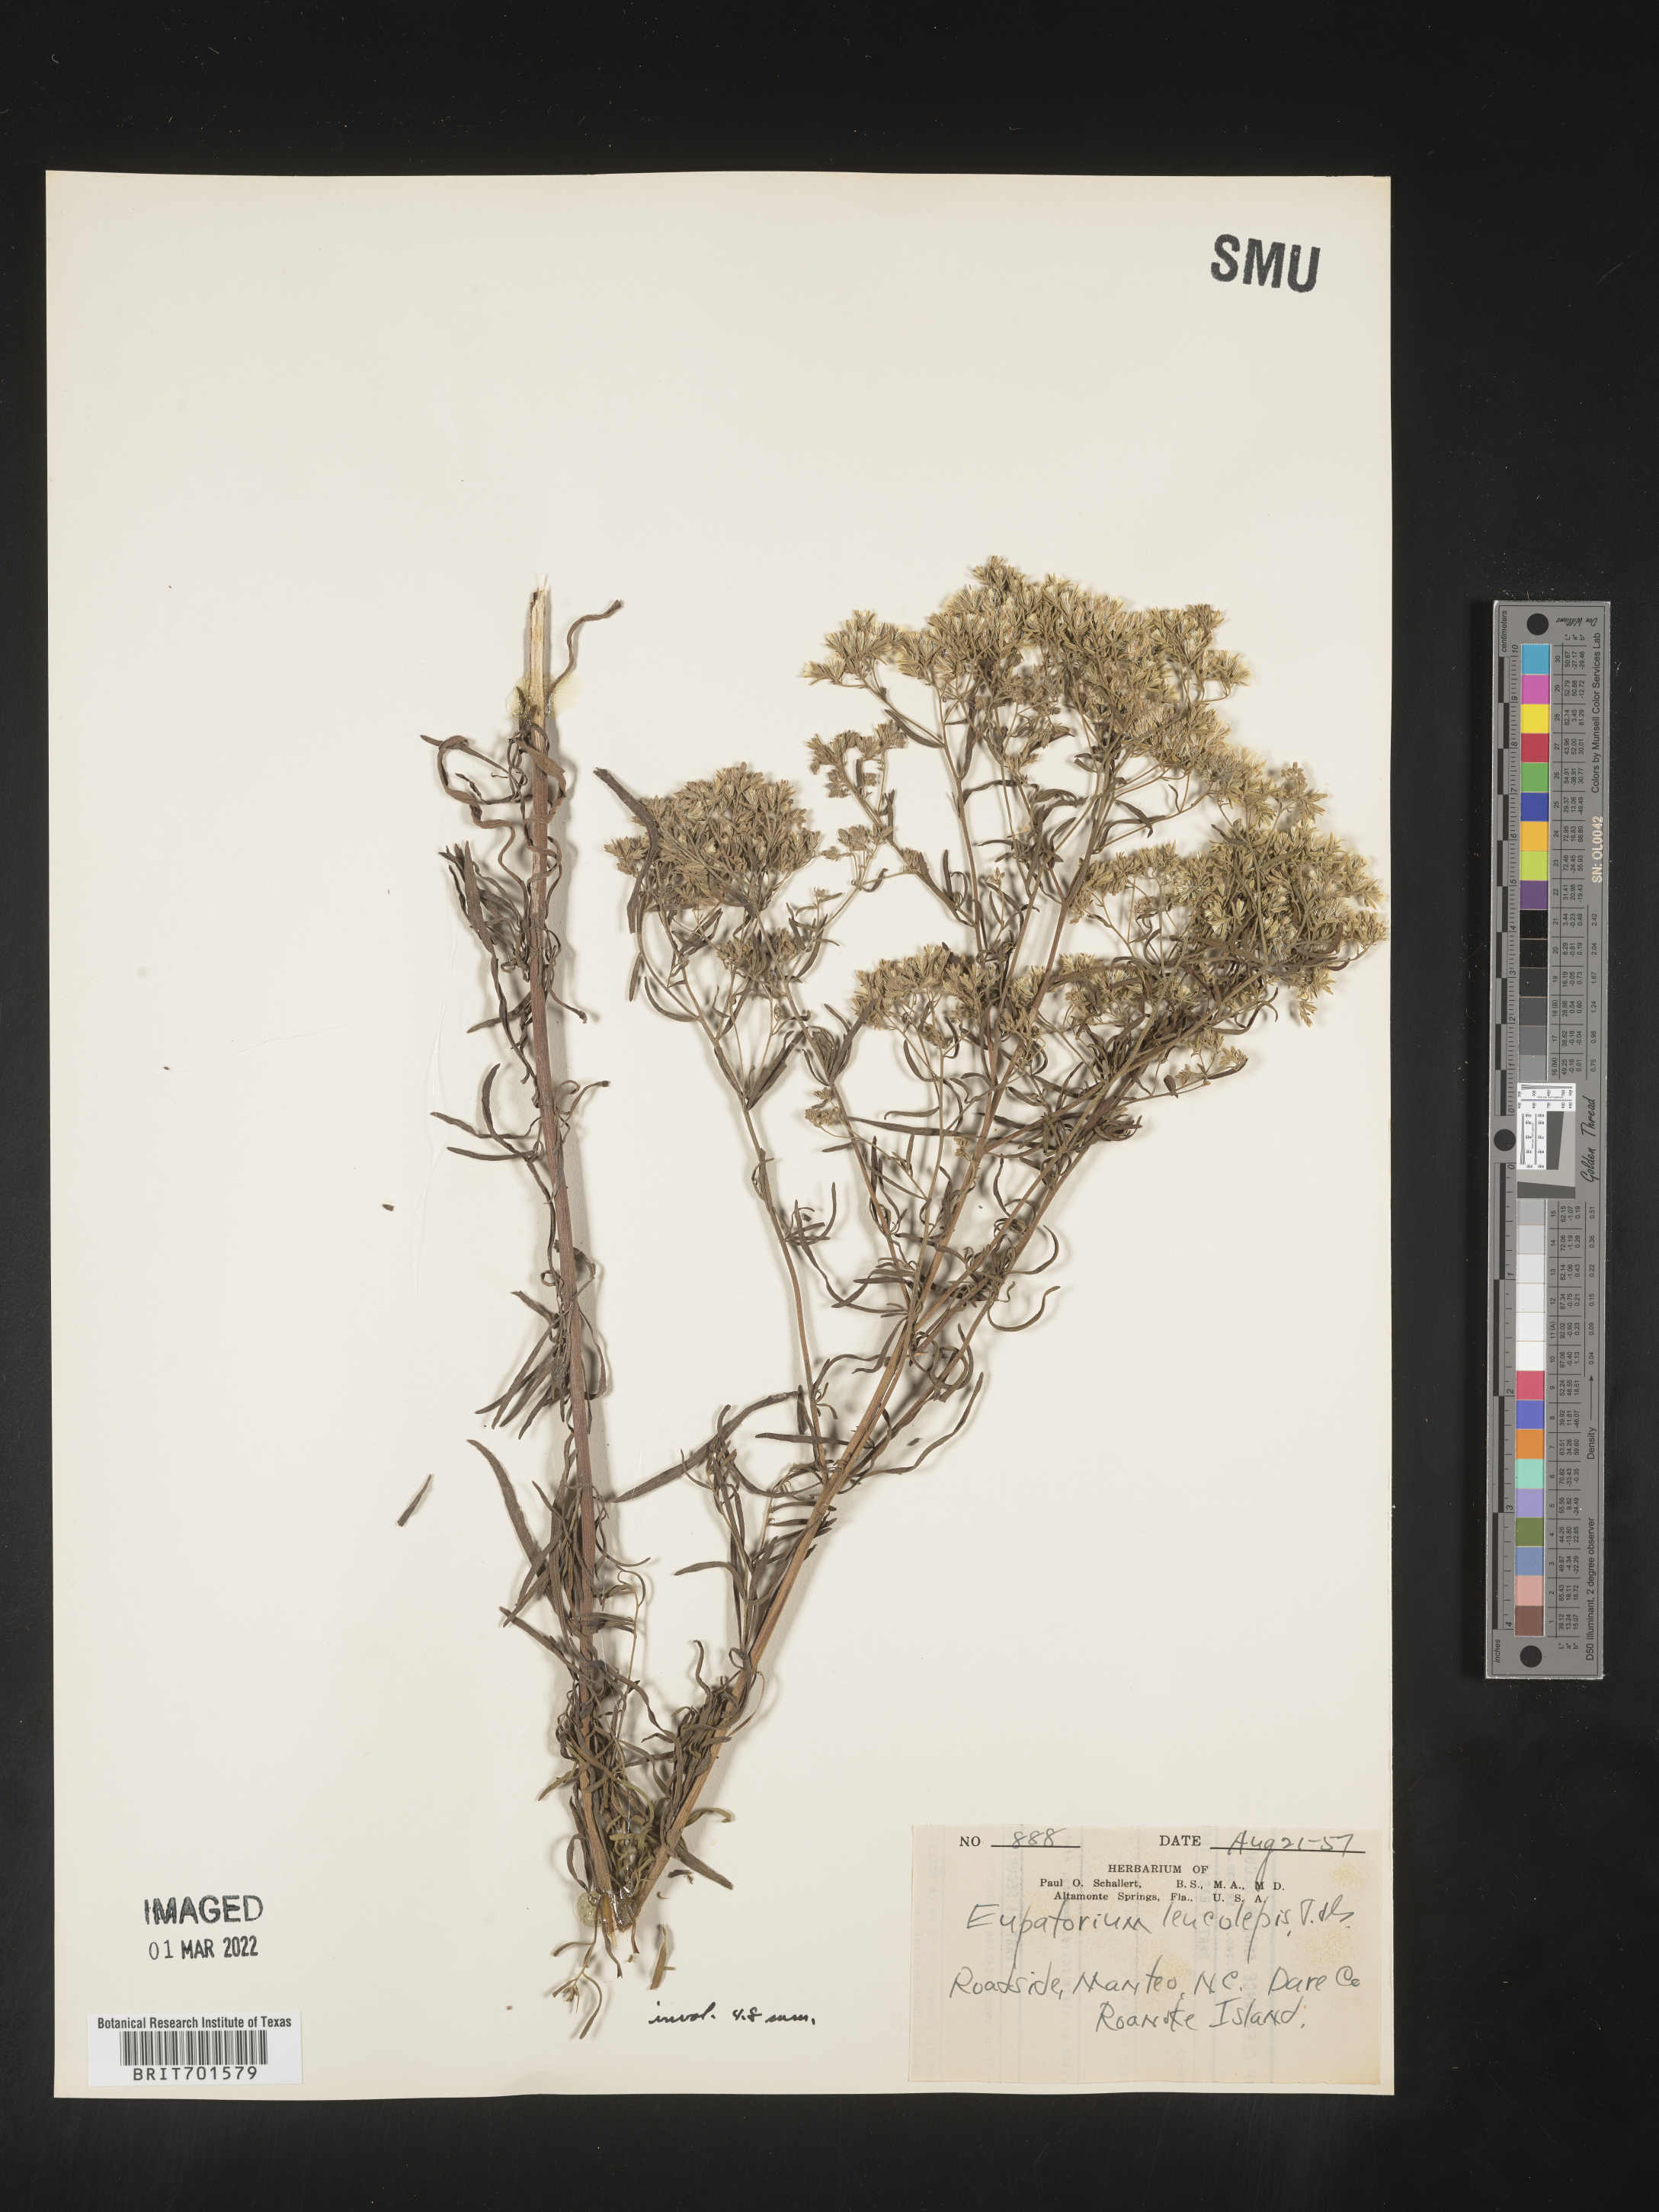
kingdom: Plantae
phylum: Tracheophyta
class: Magnoliopsida
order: Asterales
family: Asteraceae
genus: Eupatorium
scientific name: Eupatorium leucolepis
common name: Justiceweed
